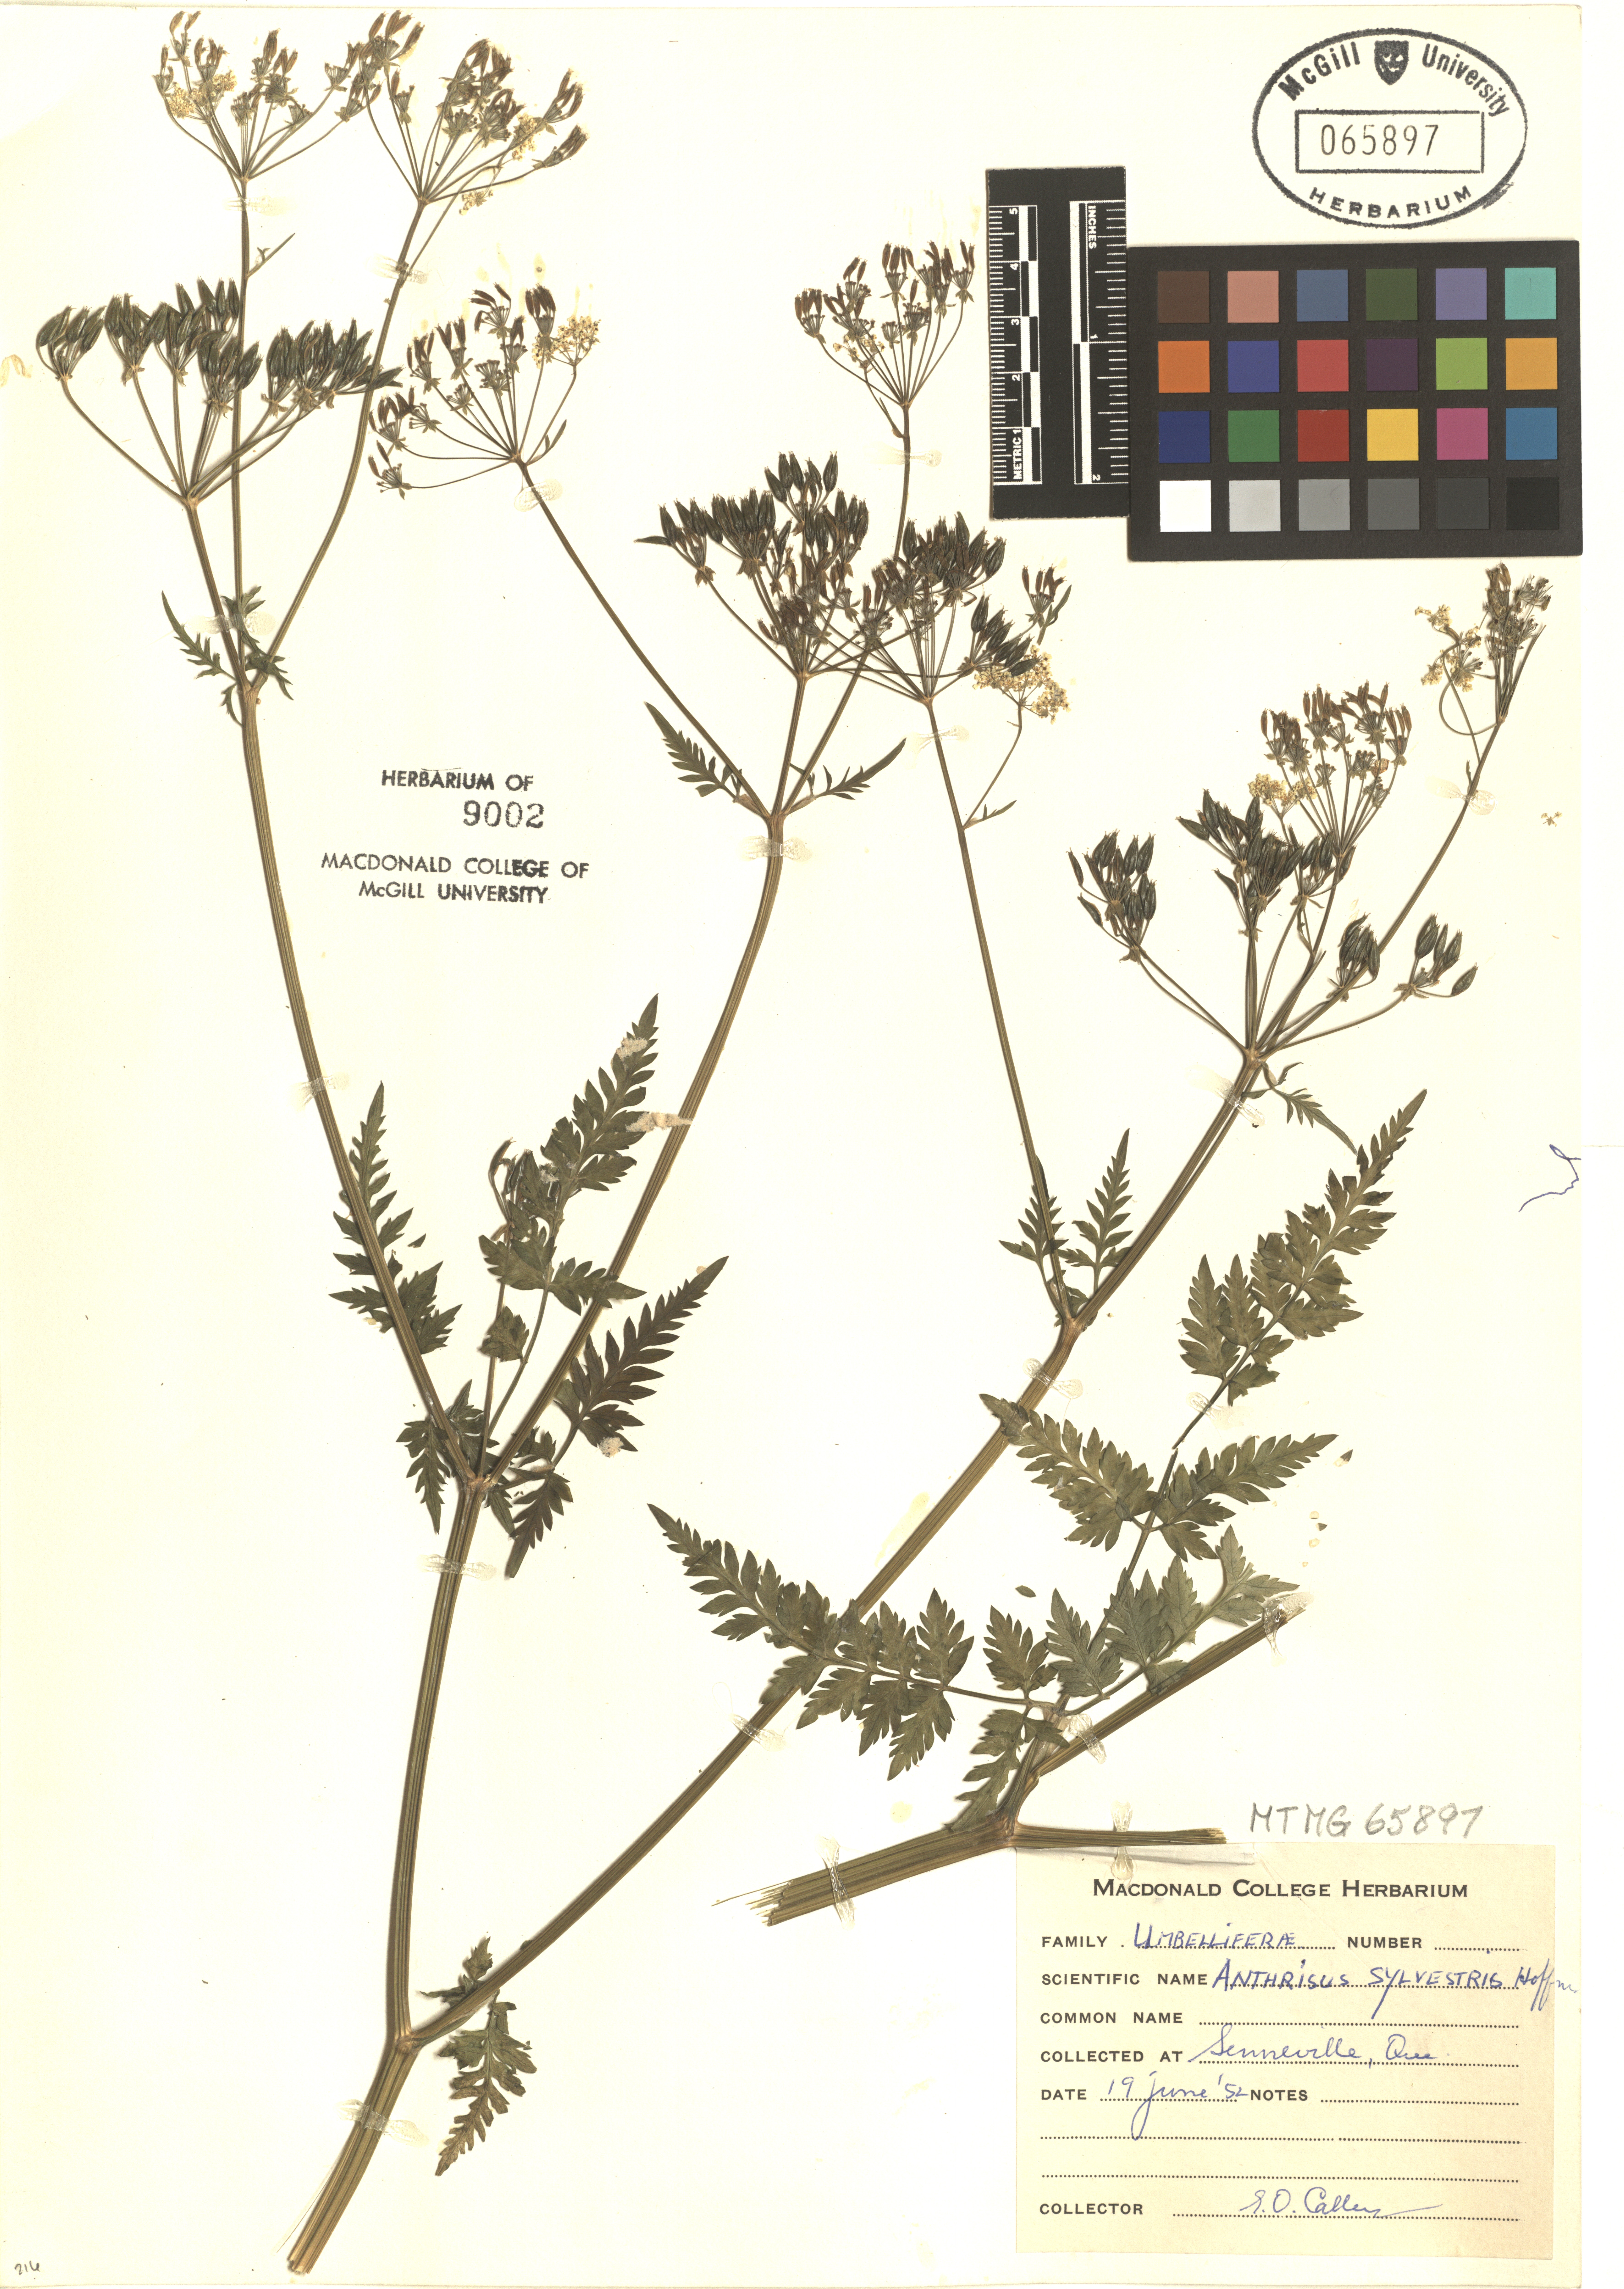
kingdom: Plantae
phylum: Tracheophyta
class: Magnoliopsida
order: Apiales
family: Apiaceae
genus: Anthriscus
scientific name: Anthriscus sylvestris
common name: Cow parsley
